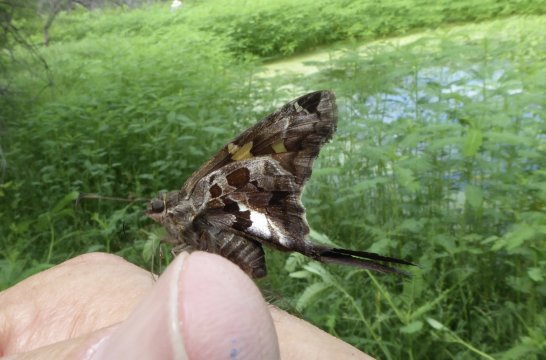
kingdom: Animalia
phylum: Arthropoda
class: Insecta
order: Lepidoptera
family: Hesperiidae
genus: Chioides
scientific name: Chioides zilpa
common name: Zilpa Longtail
